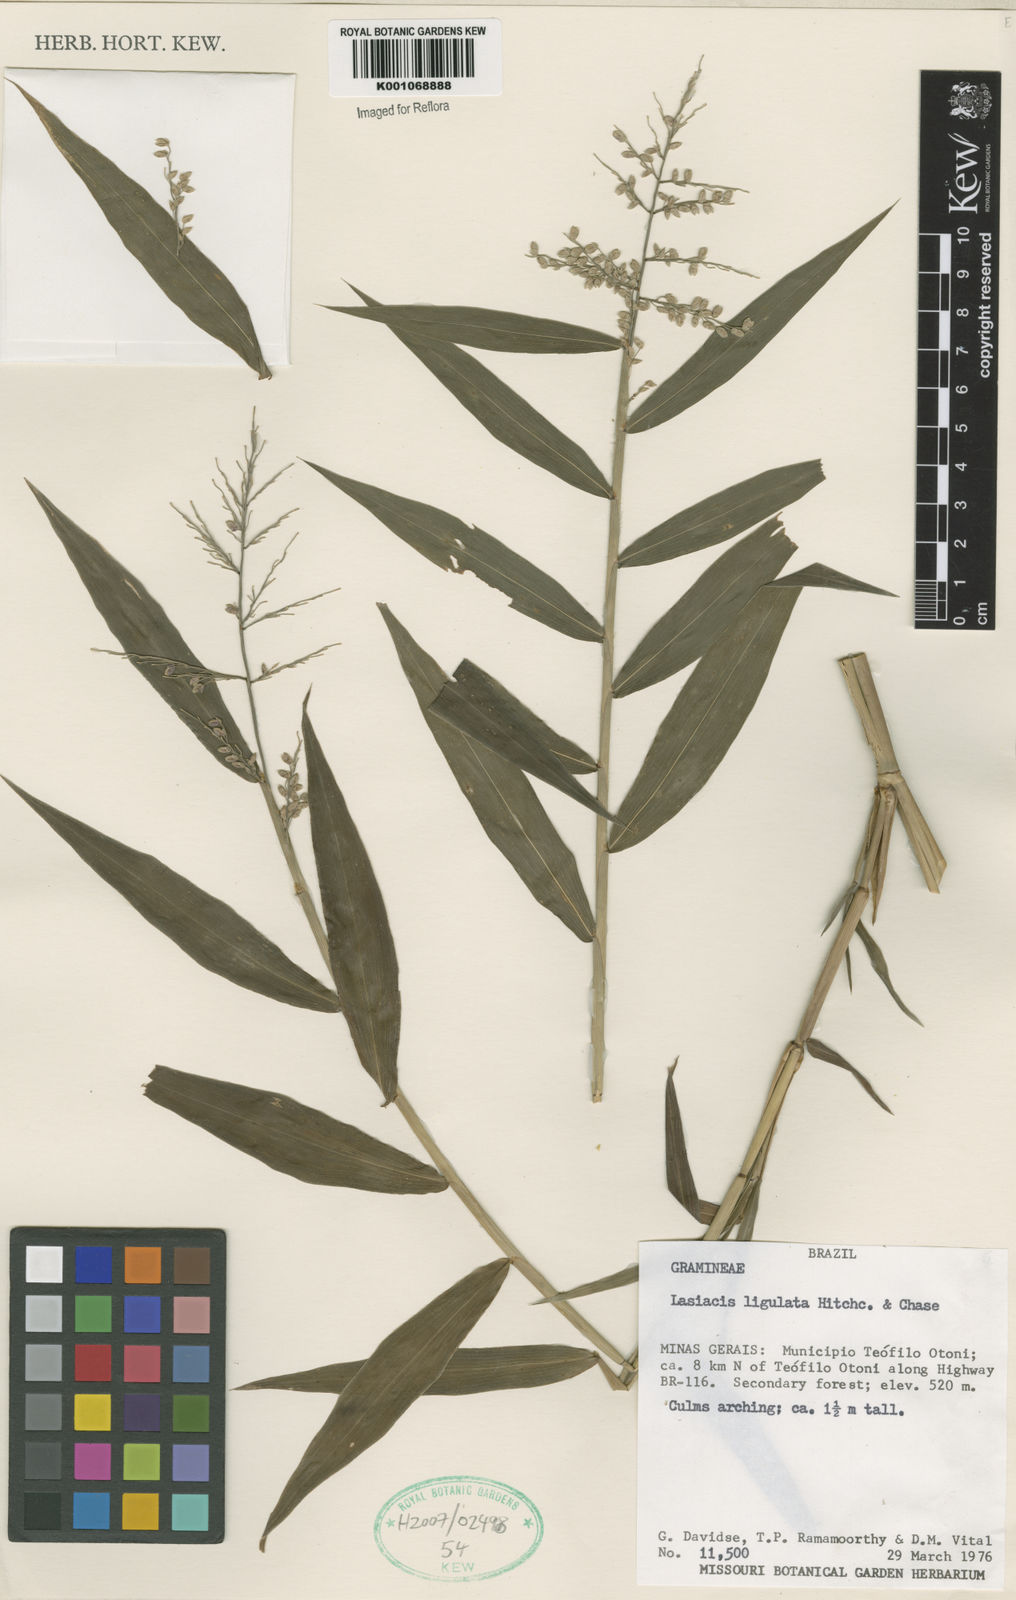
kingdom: Plantae
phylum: Tracheophyta
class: Liliopsida
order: Poales
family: Poaceae
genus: Lasiacis
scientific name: Lasiacis ligulata
